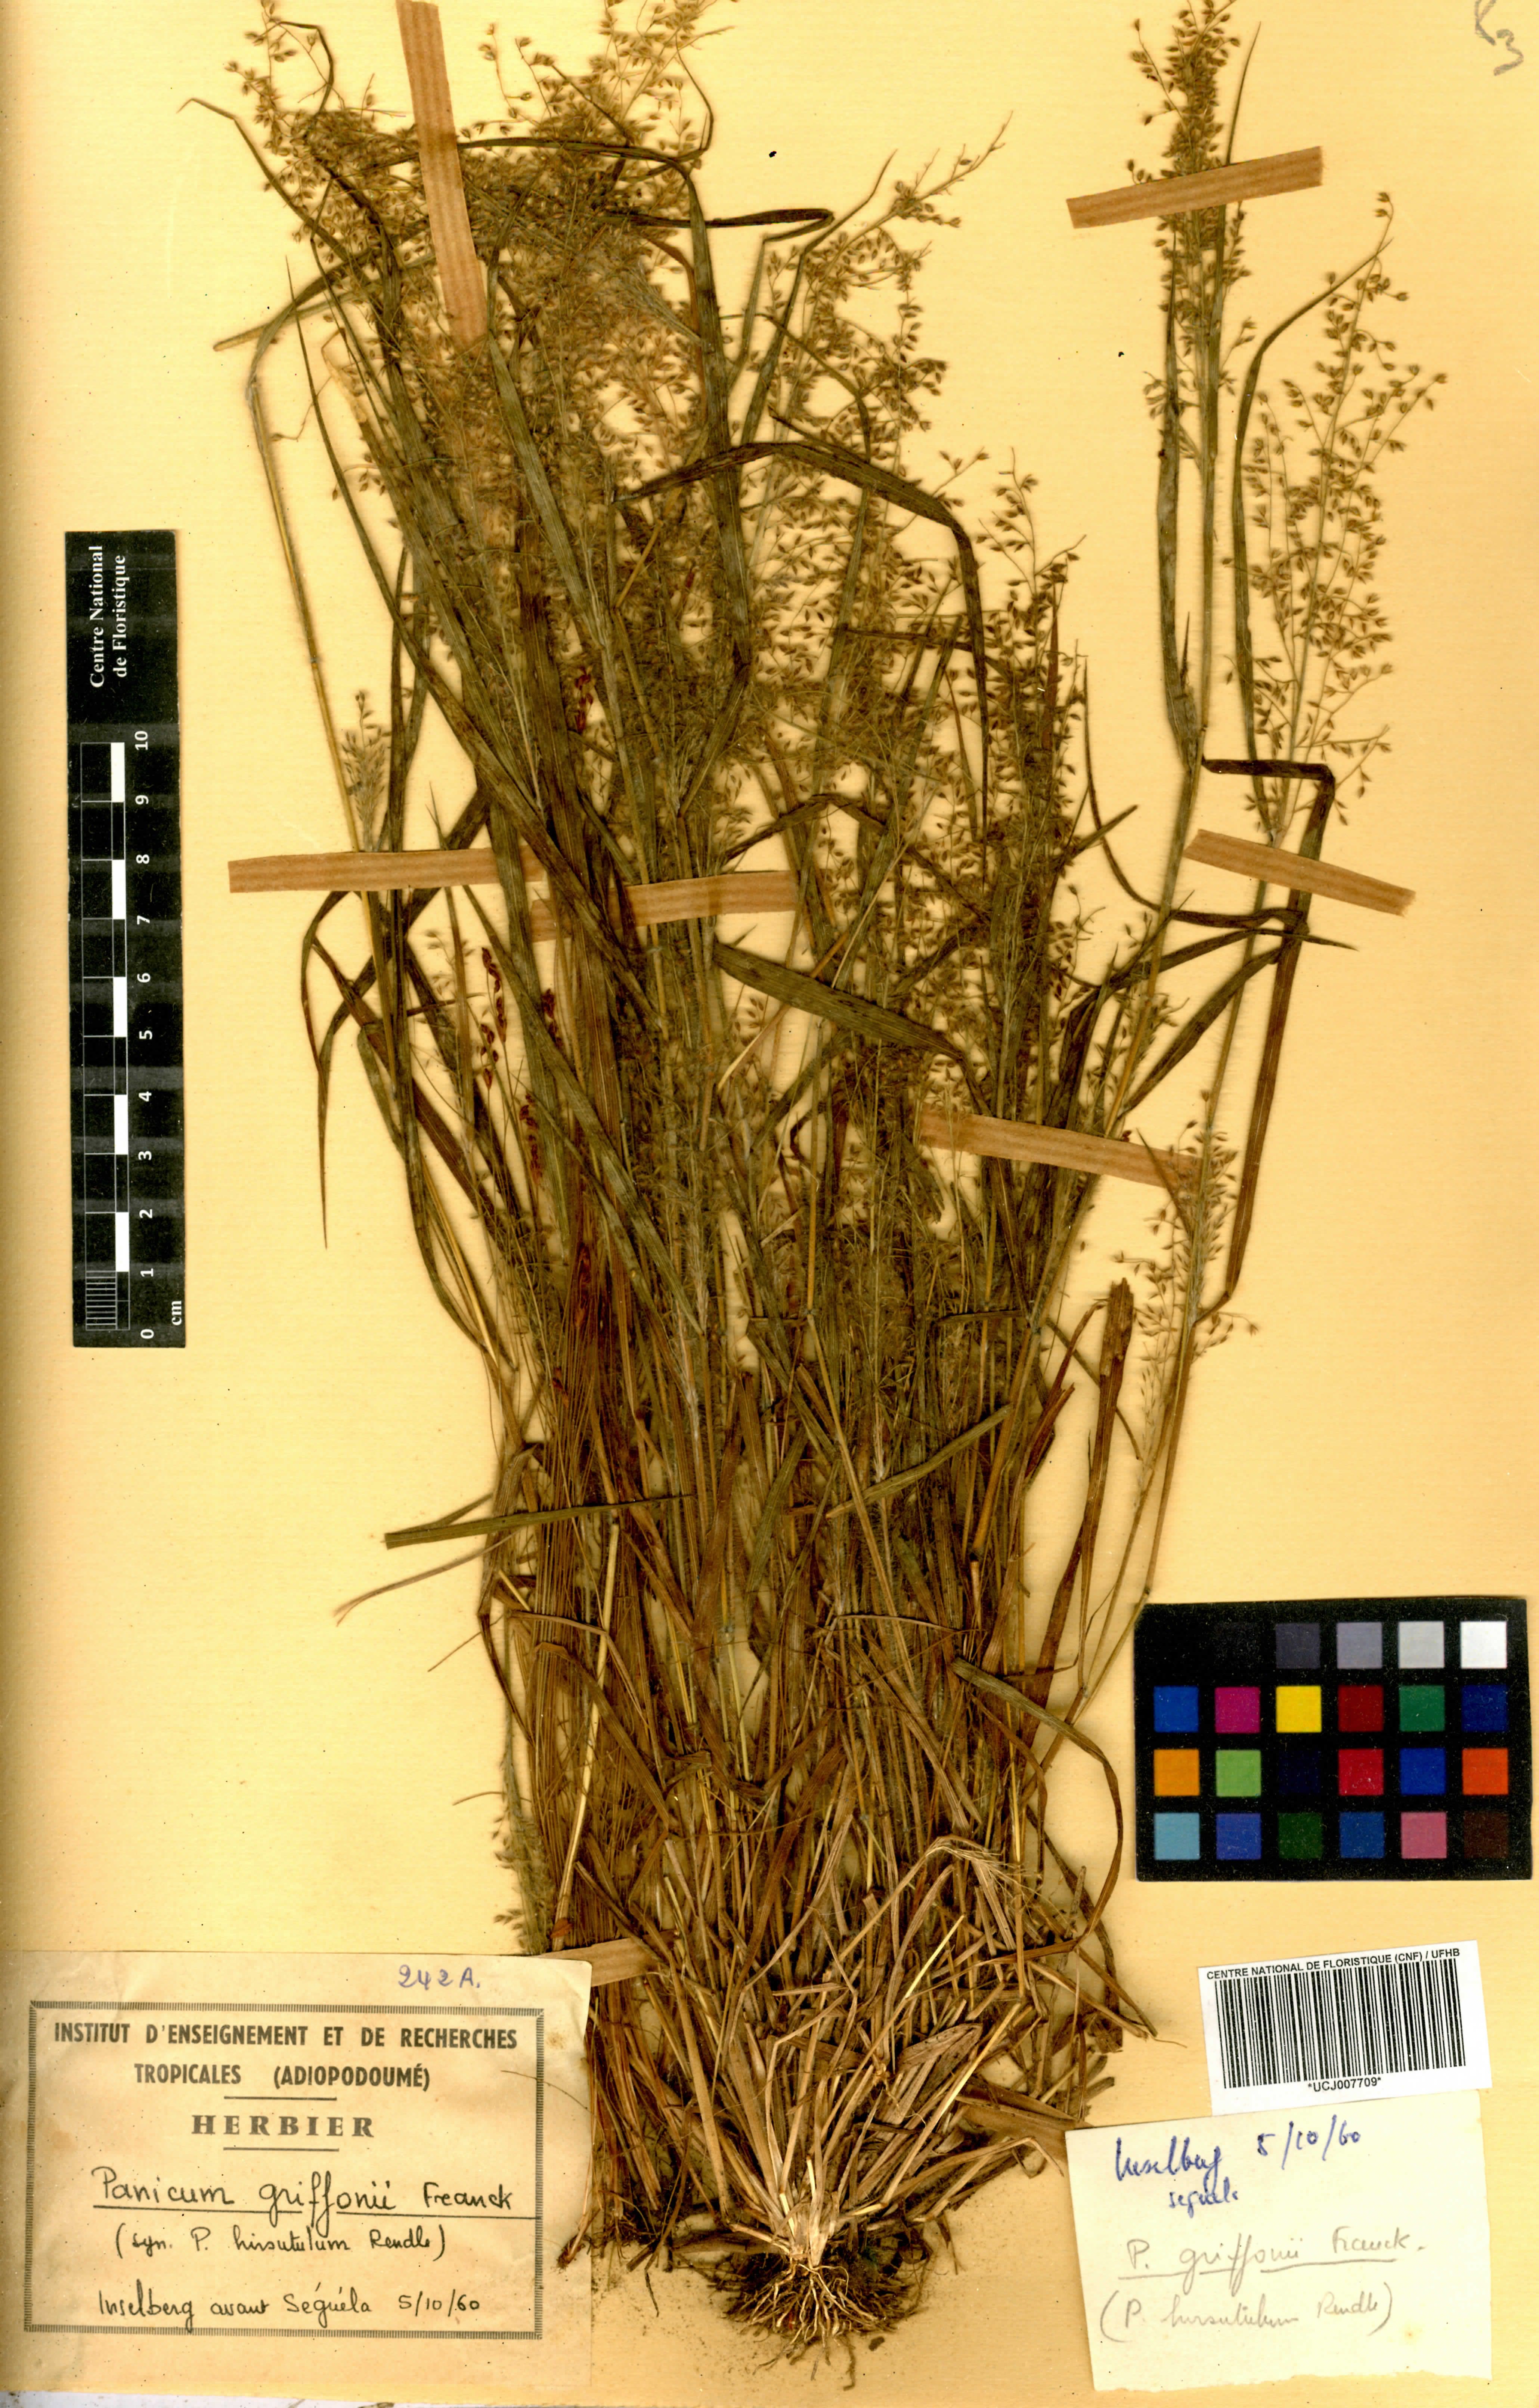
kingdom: Plantae
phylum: Tracheophyta
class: Liliopsida
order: Poales
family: Poaceae
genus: Panicum
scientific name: Panicum griffonii
